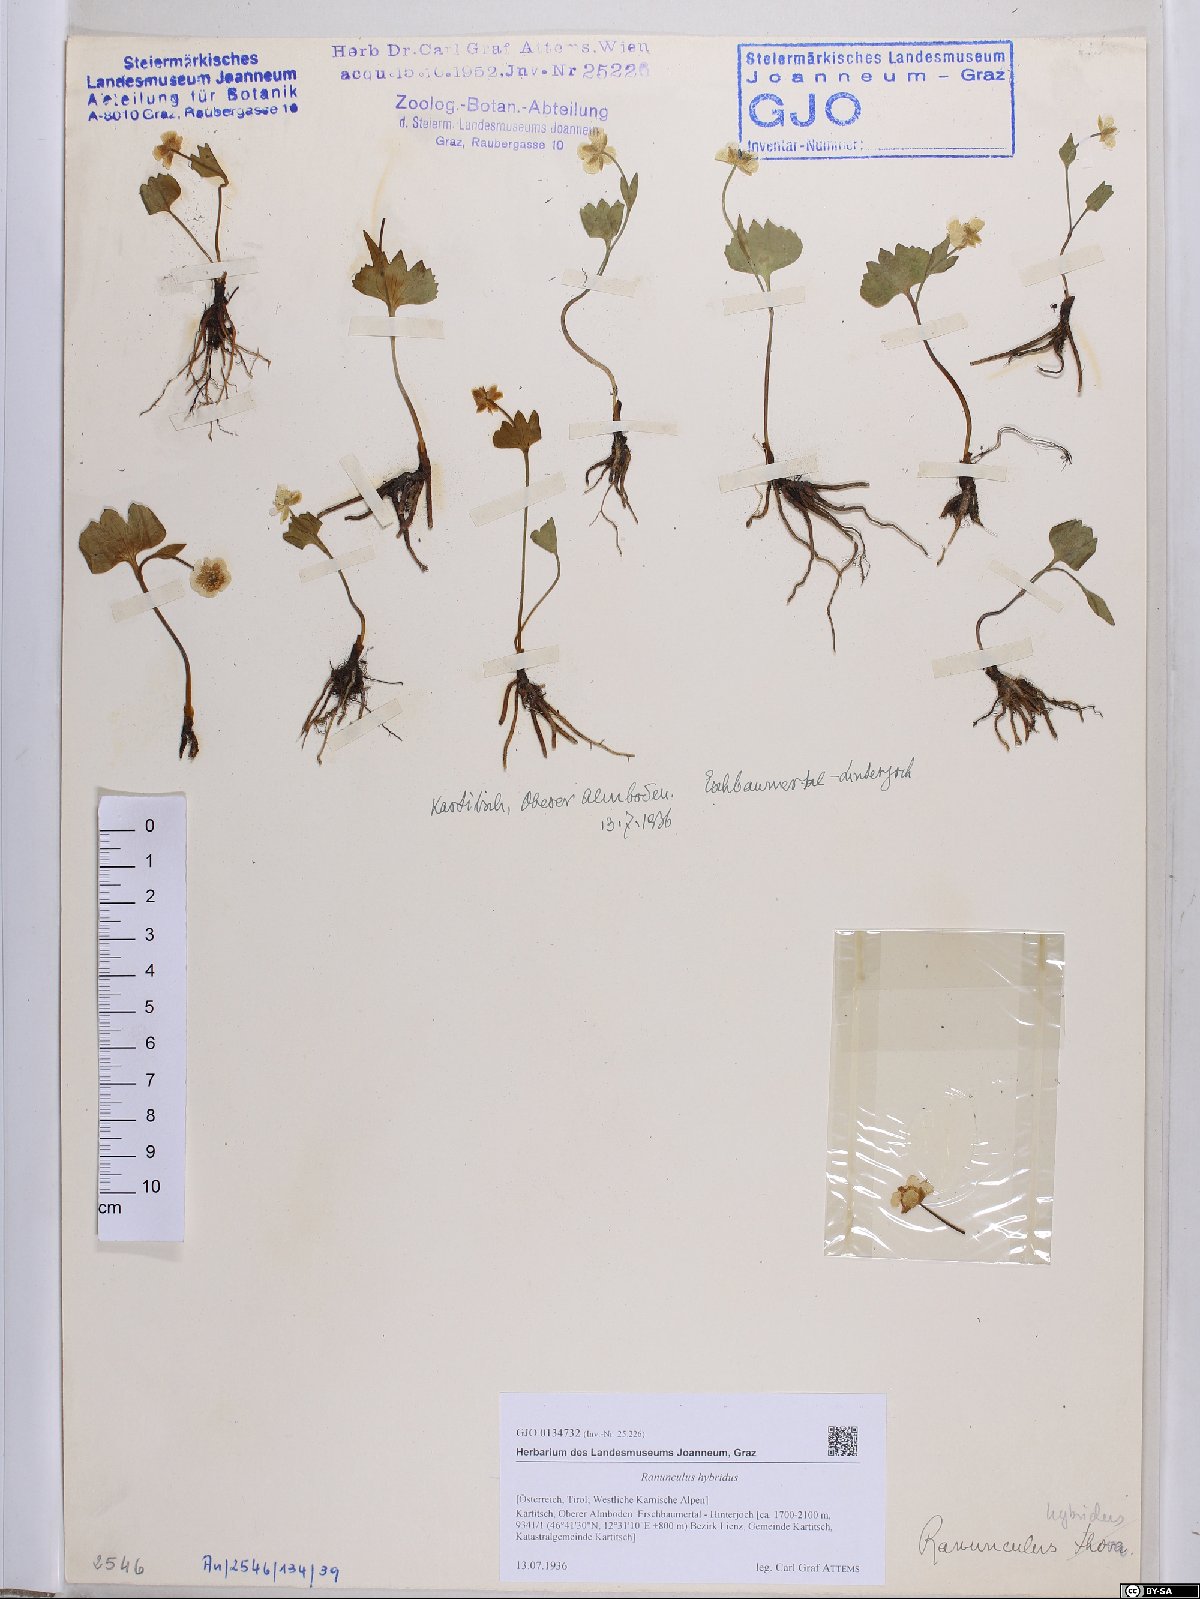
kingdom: Plantae
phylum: Tracheophyta
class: Magnoliopsida
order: Ranunculales
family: Ranunculaceae
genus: Ranunculus
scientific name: Ranunculus hybridus
